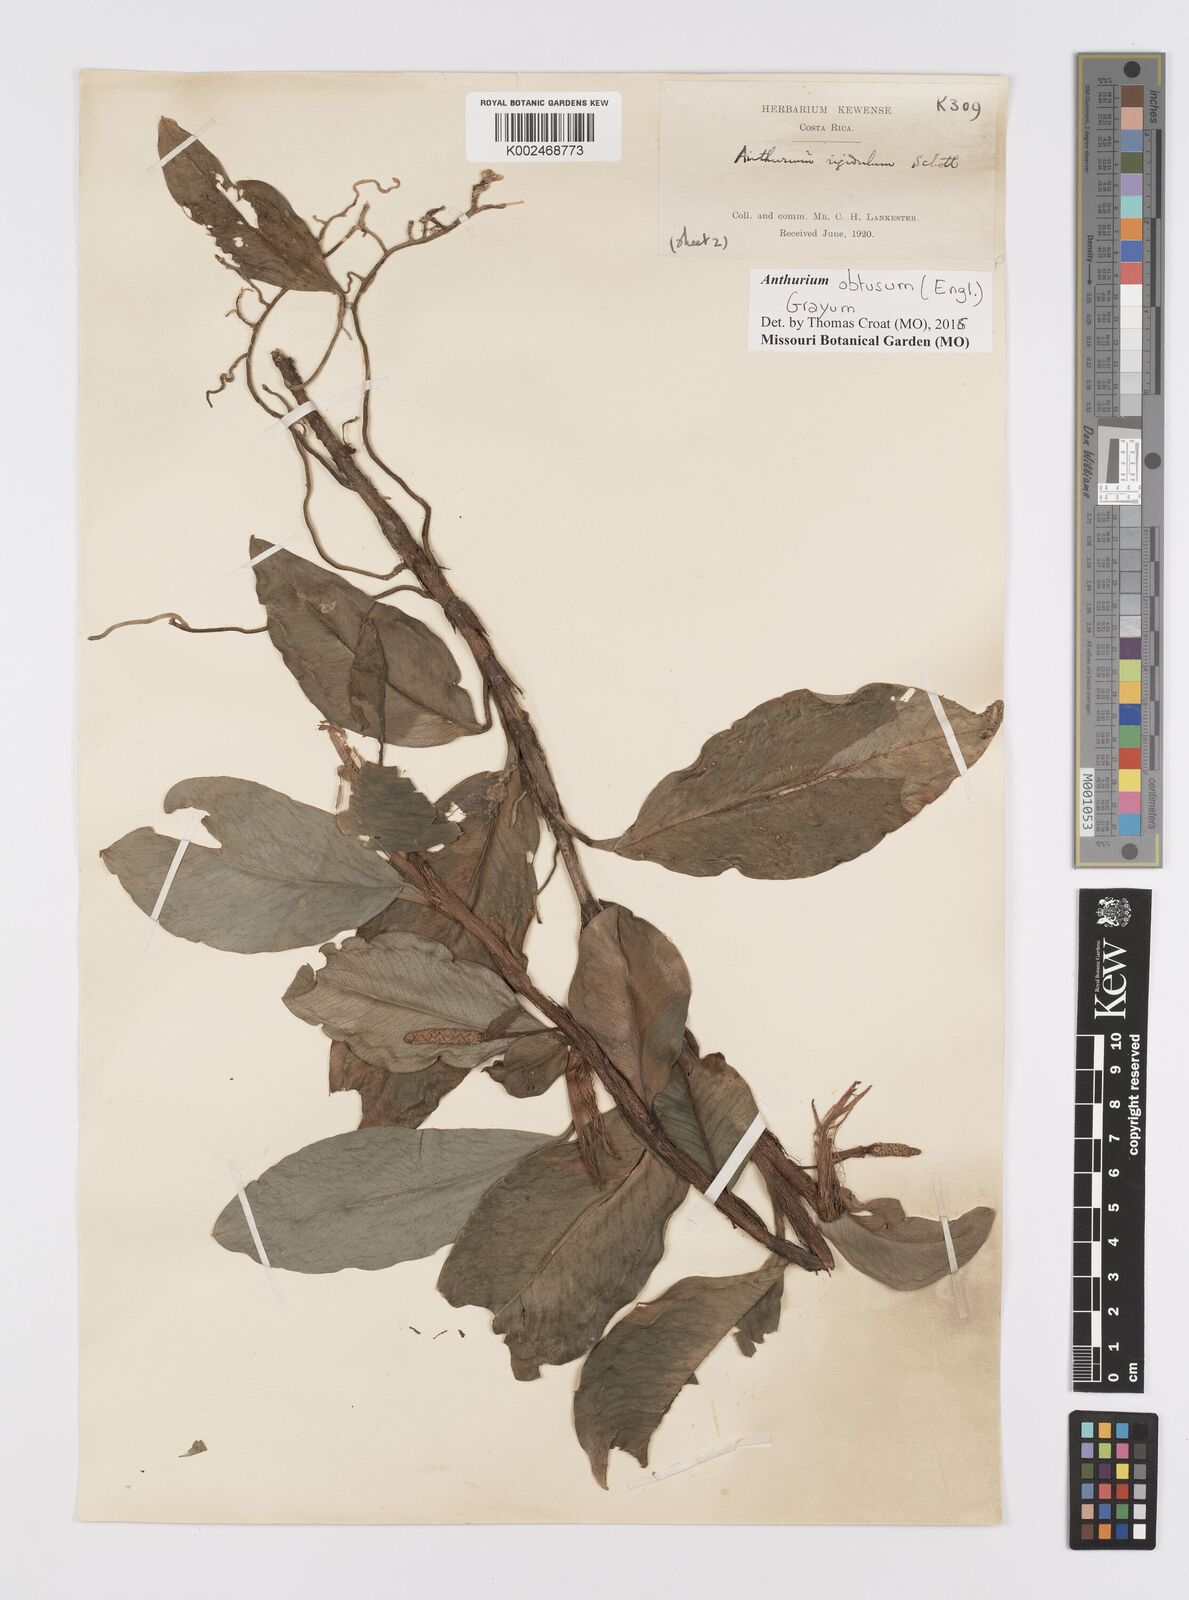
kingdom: Plantae
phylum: Tracheophyta
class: Liliopsida
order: Alismatales
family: Araceae
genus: Anthurium
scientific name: Anthurium obtusum
